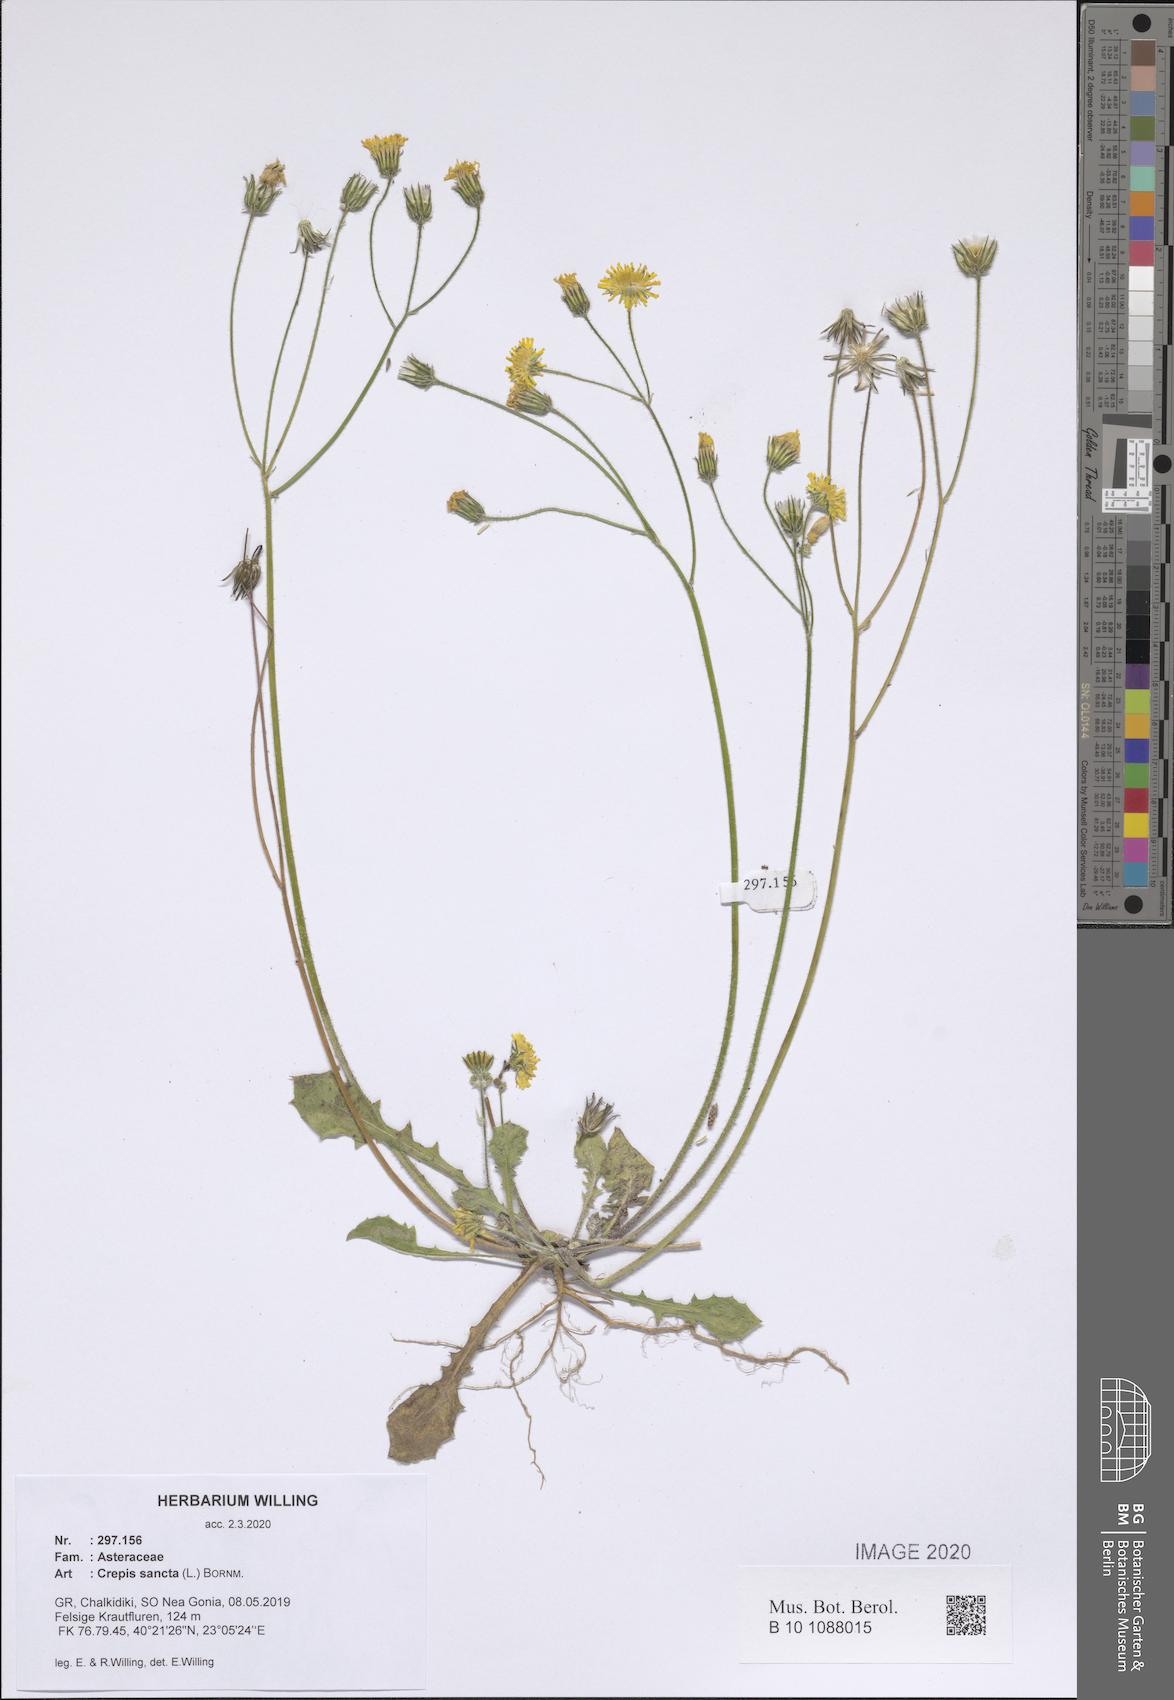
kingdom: Plantae
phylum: Tracheophyta
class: Magnoliopsida
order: Asterales
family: Asteraceae
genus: Crepis
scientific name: Crepis sancta
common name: Hawk's-beard
